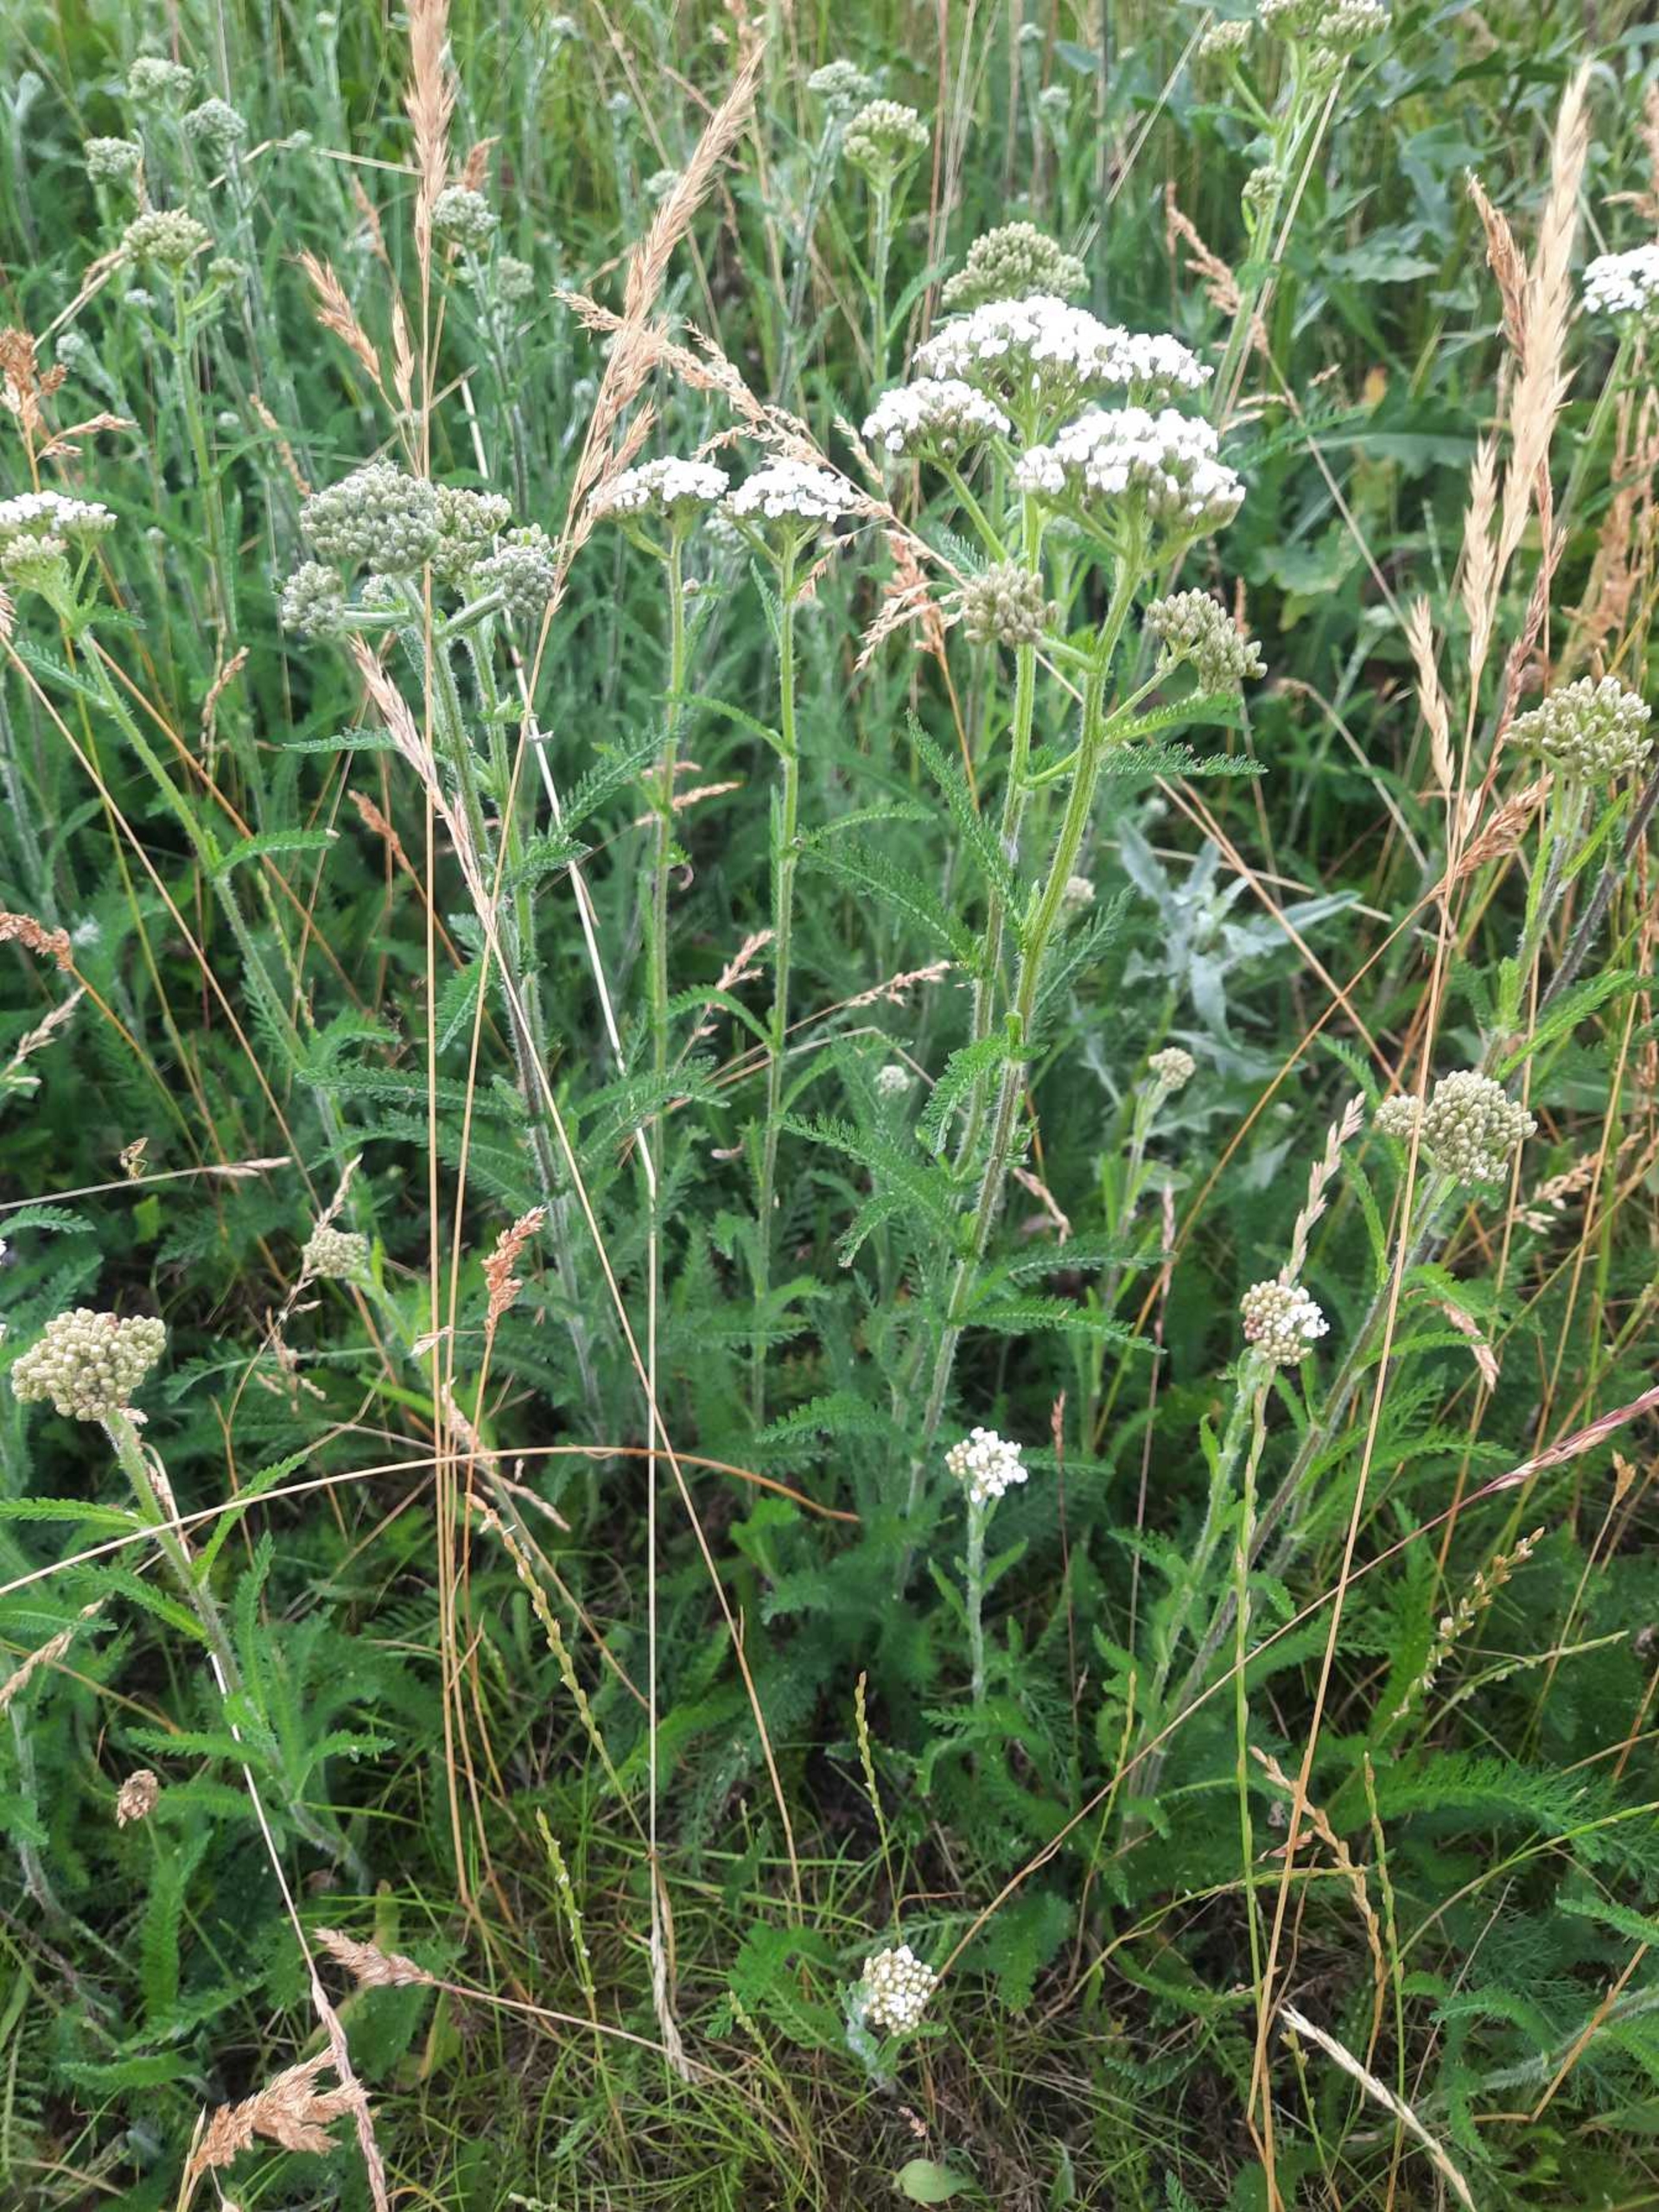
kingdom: Plantae
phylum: Tracheophyta
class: Magnoliopsida
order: Asterales
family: Asteraceae
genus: Achillea
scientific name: Achillea millefolium
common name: Almindelig røllike (underart)
